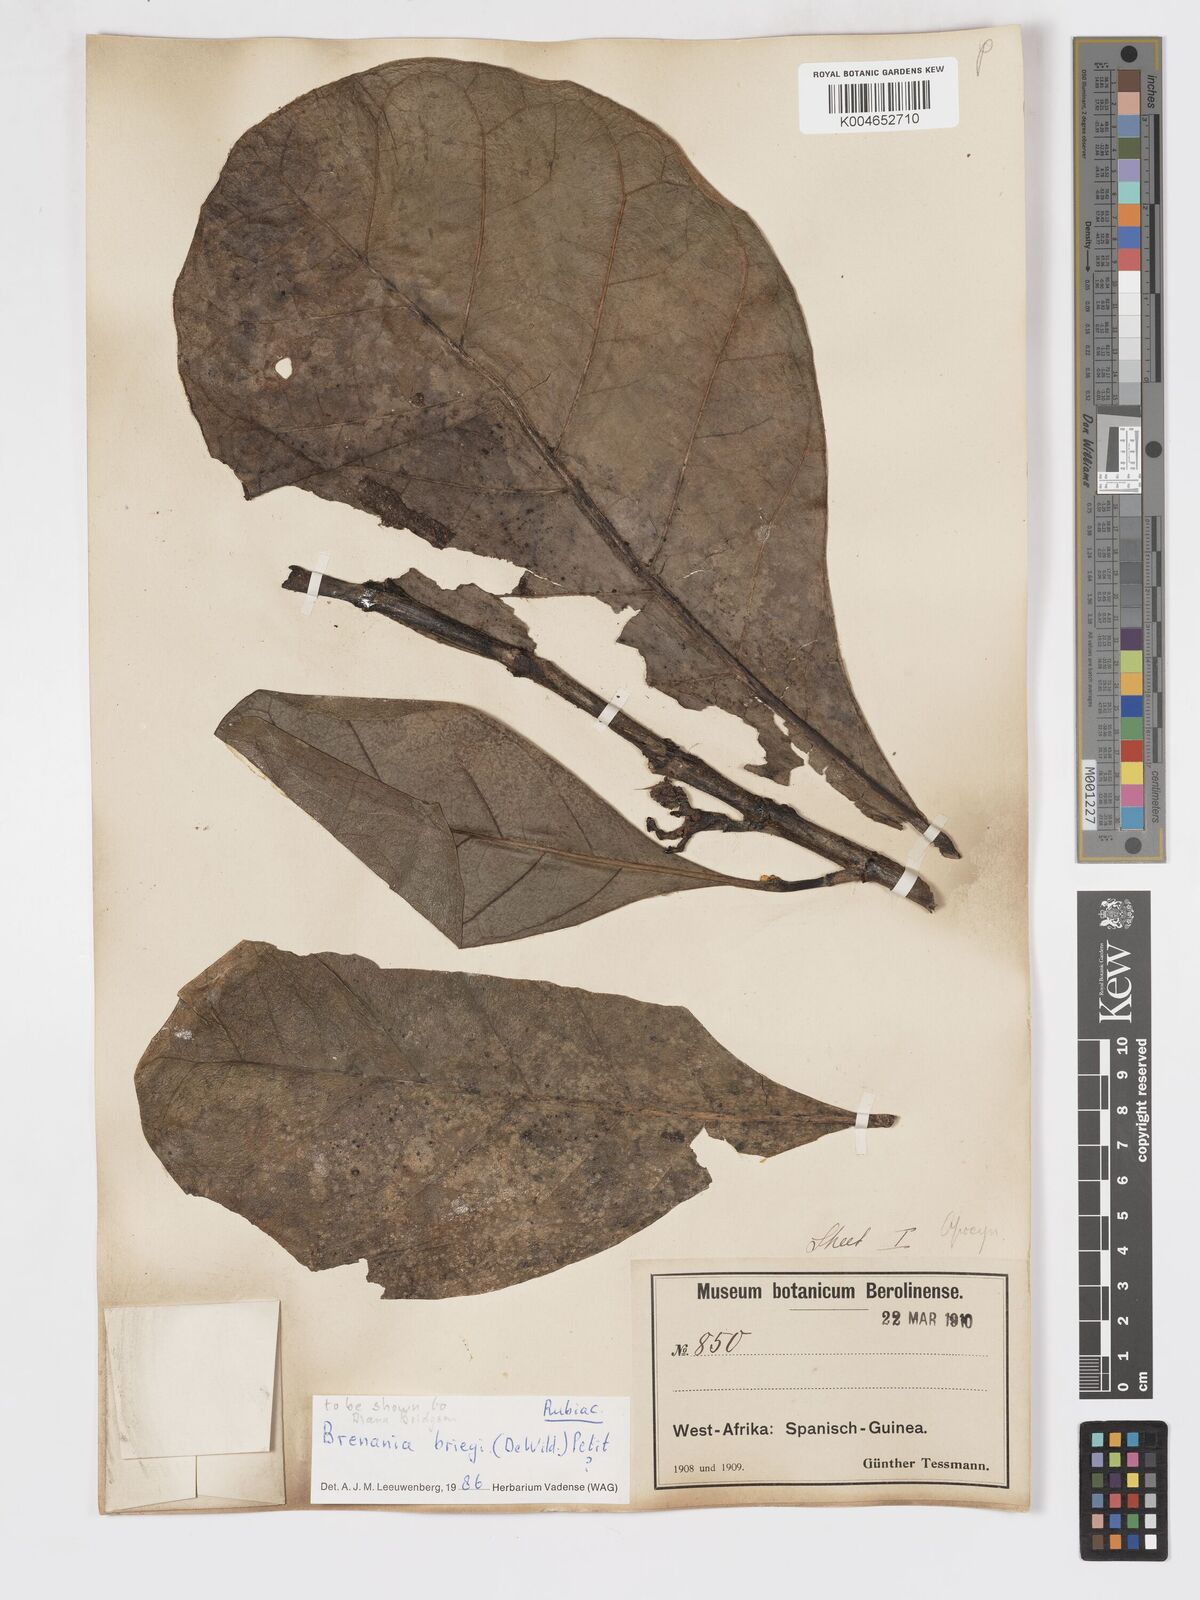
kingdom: Plantae
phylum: Tracheophyta
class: Magnoliopsida
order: Gentianales
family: Rubiaceae
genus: Brenania
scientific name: Brenania brieyi
